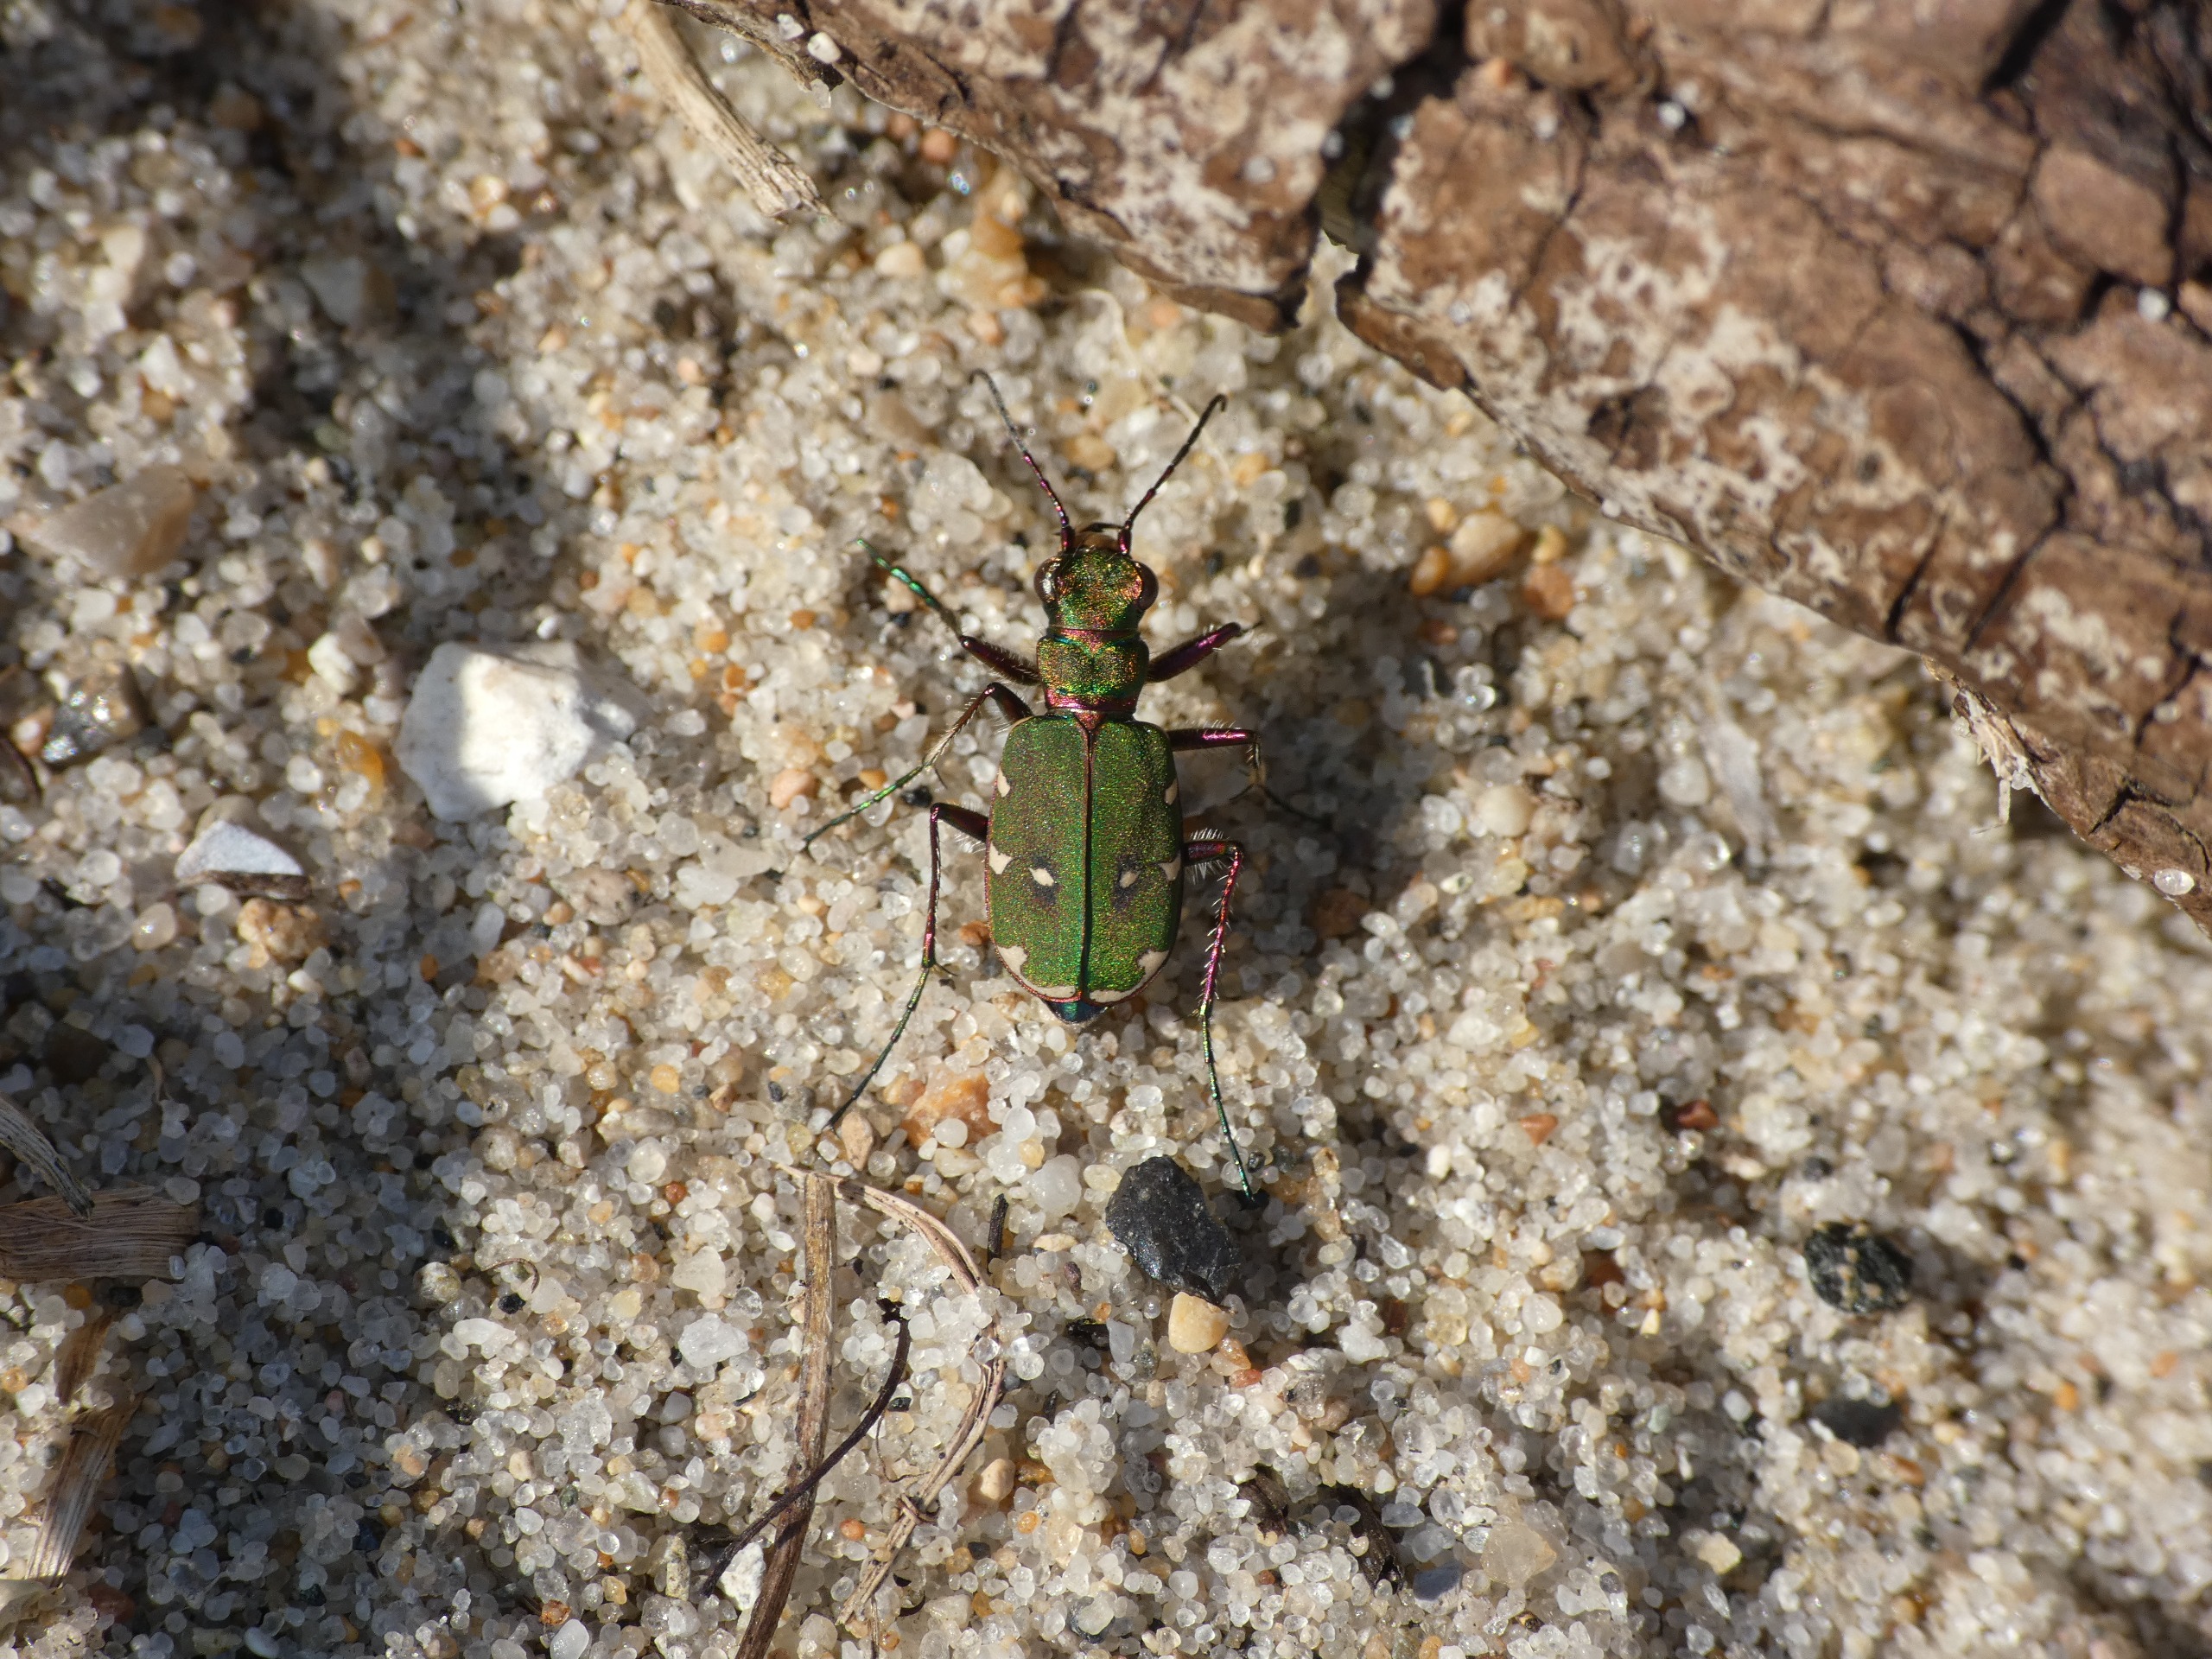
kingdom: Animalia
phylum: Arthropoda
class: Insecta
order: Coleoptera
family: Carabidae
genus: Cicindela
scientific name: Cicindela campestris
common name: Grøn sandspringer
